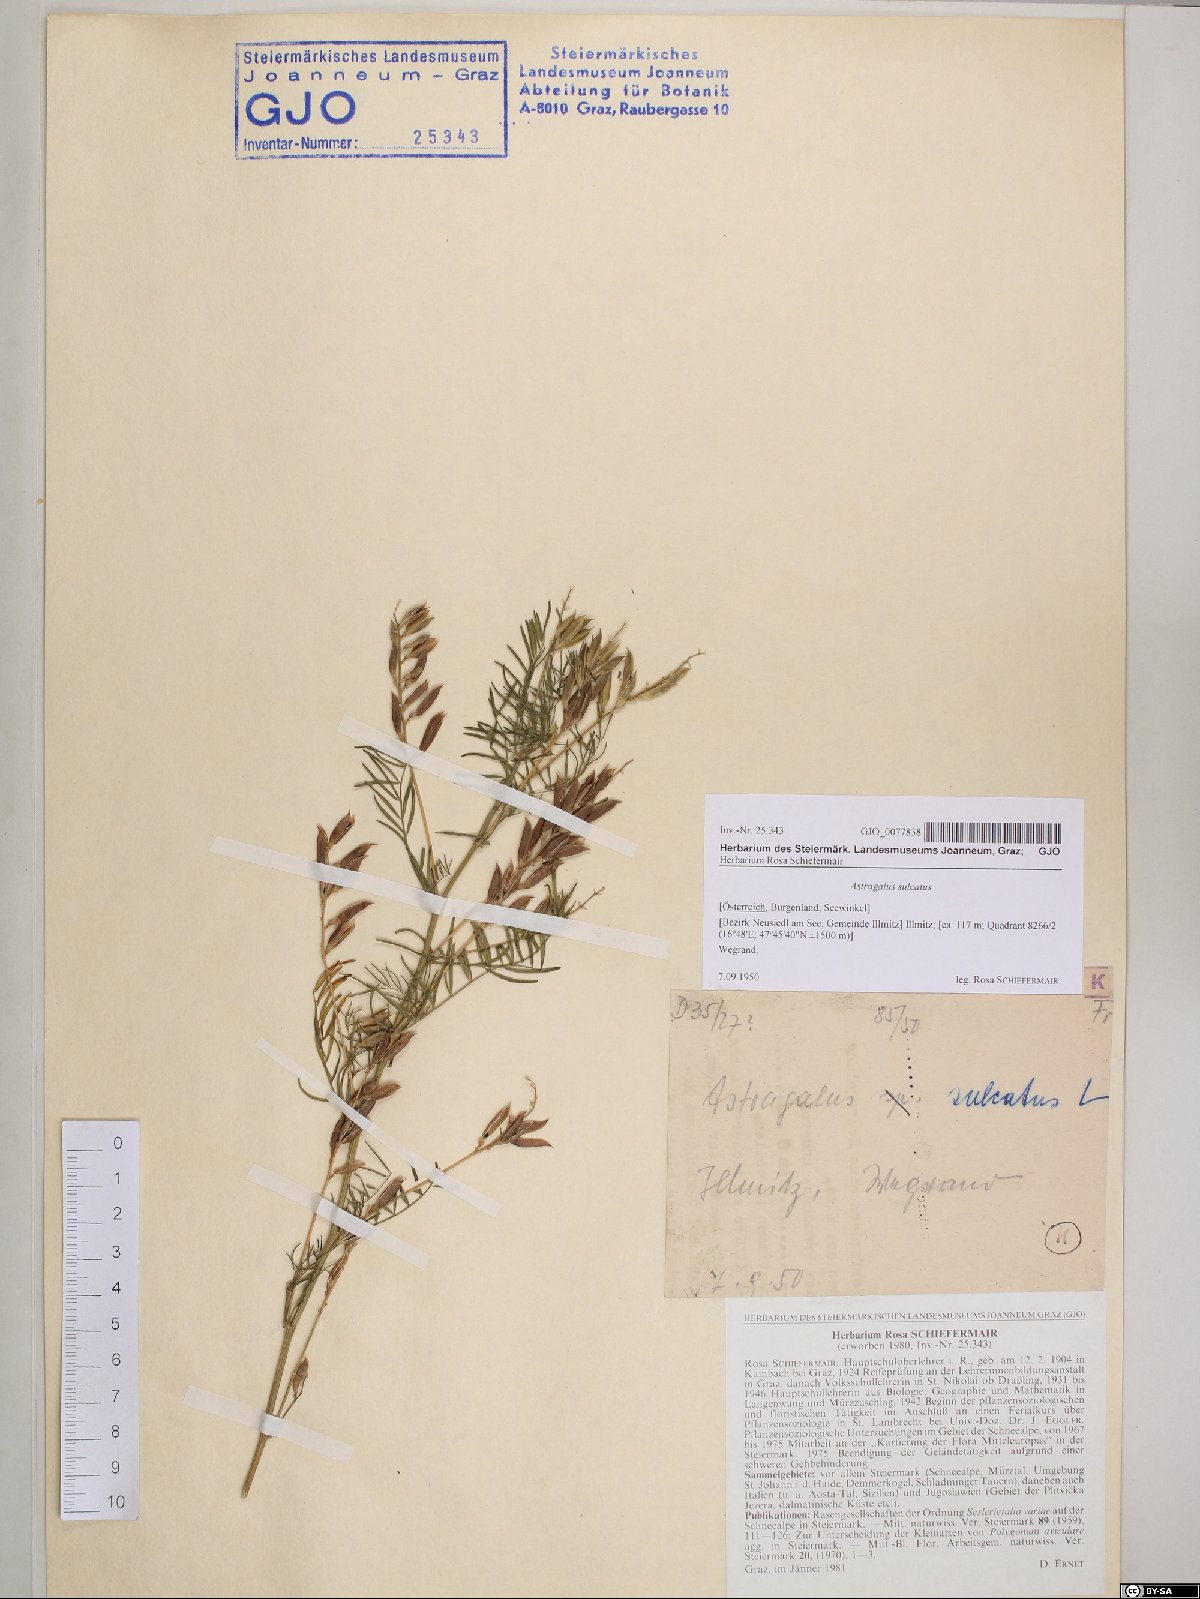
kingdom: Plantae
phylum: Tracheophyta
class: Magnoliopsida
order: Fabales
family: Fabaceae
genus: Astragalus
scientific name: Astragalus sulcatus
